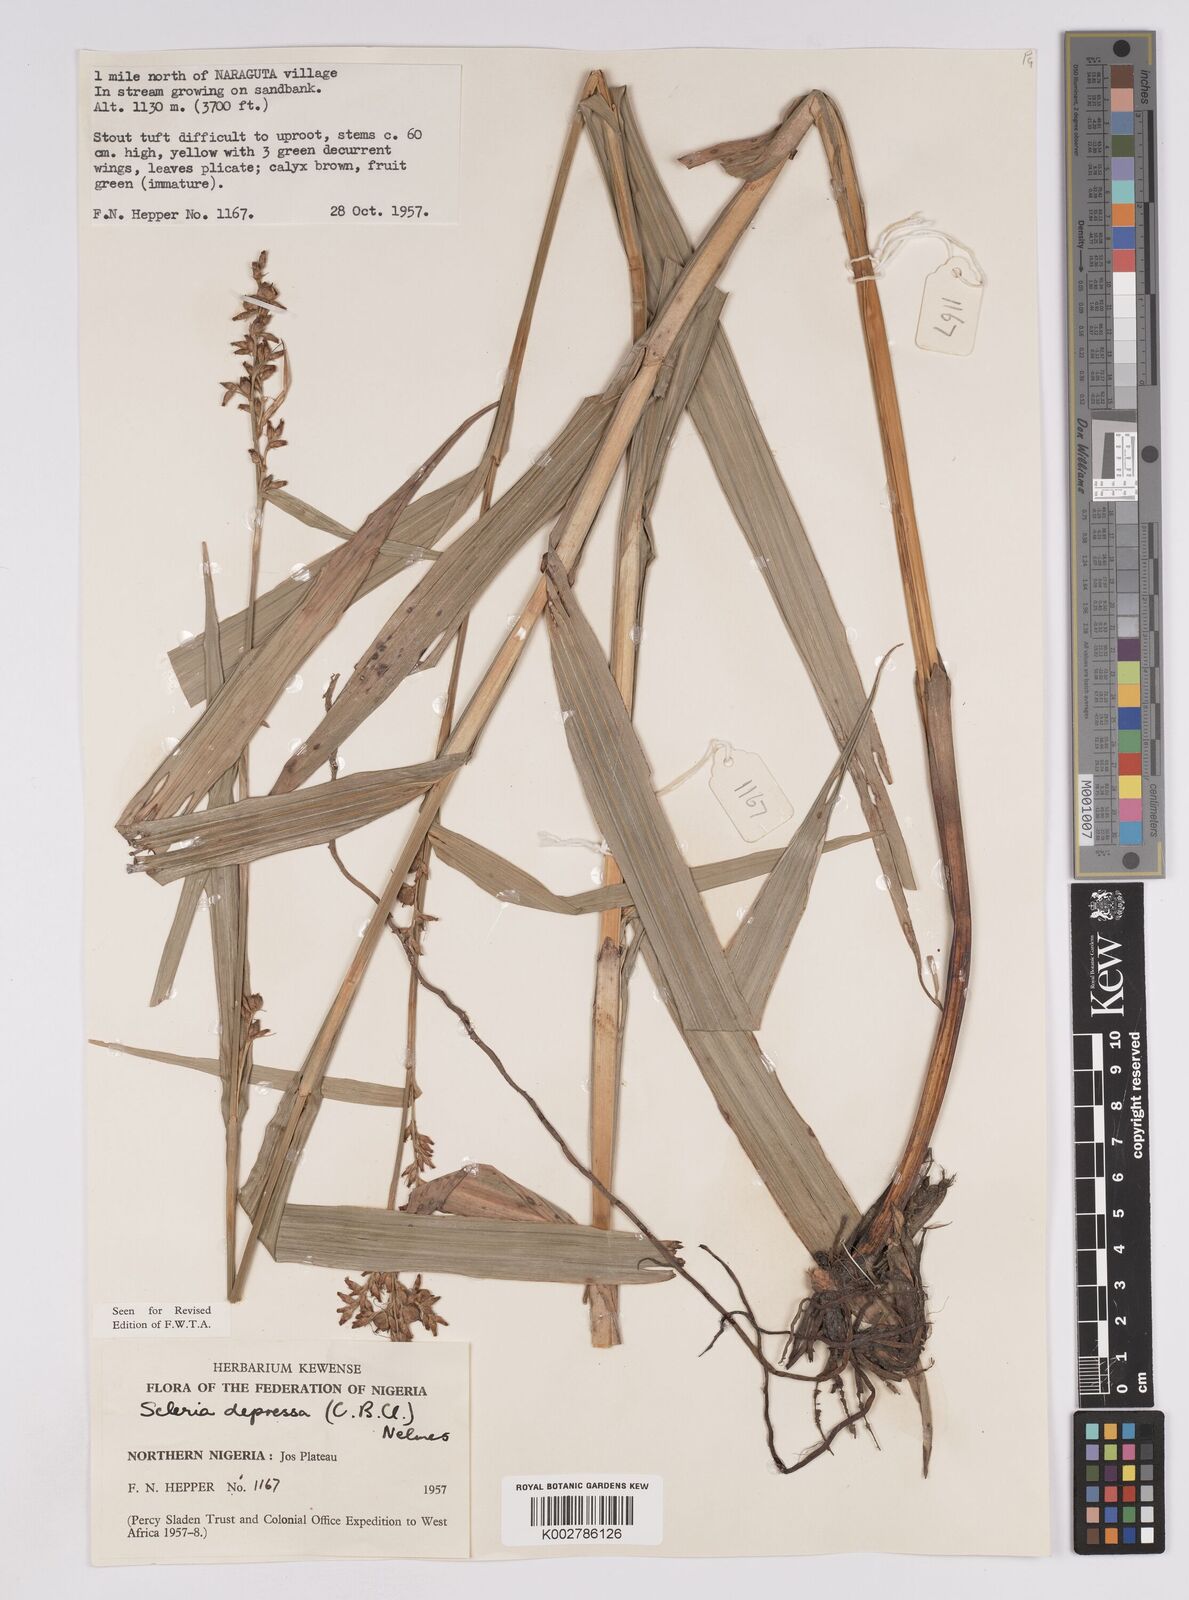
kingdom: Plantae
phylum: Tracheophyta
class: Liliopsida
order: Poales
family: Cyperaceae
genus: Scleria
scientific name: Scleria depressa
